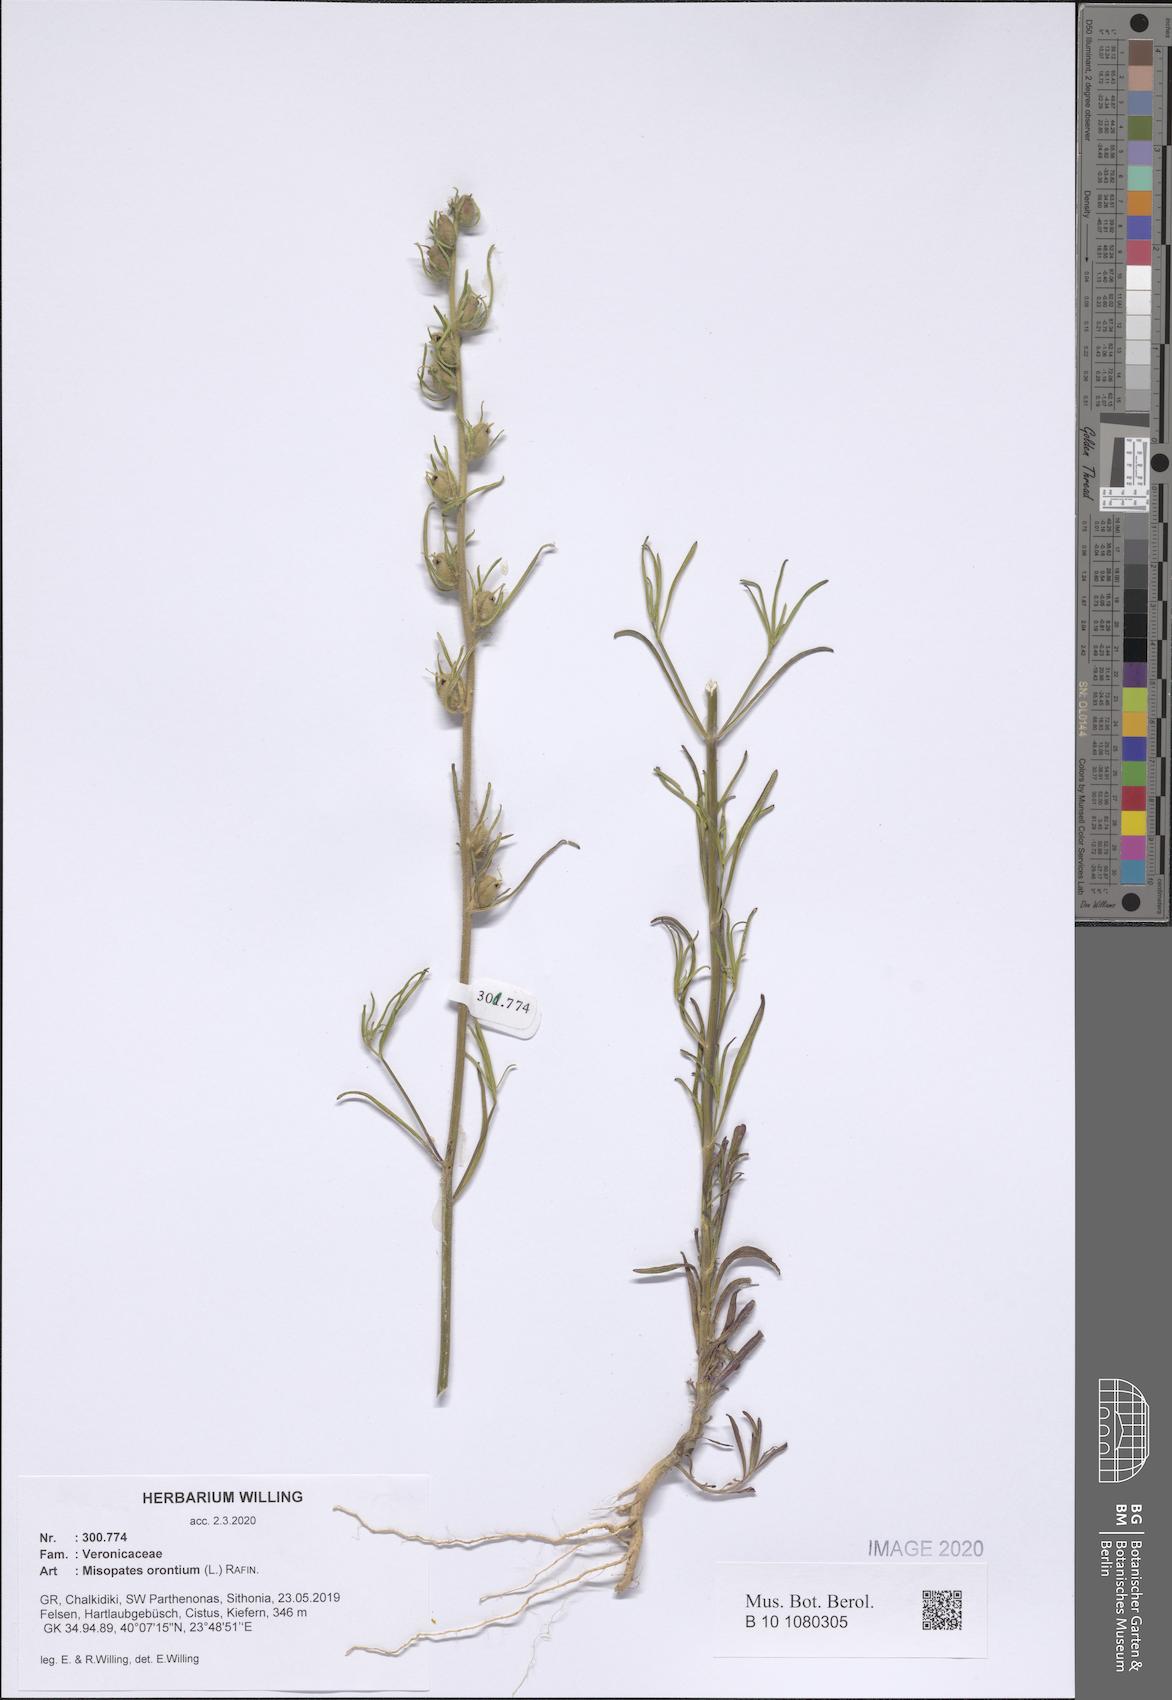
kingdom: Plantae
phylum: Tracheophyta
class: Magnoliopsida
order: Lamiales
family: Plantaginaceae
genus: Misopates
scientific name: Misopates orontium
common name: Weasel's-snout
